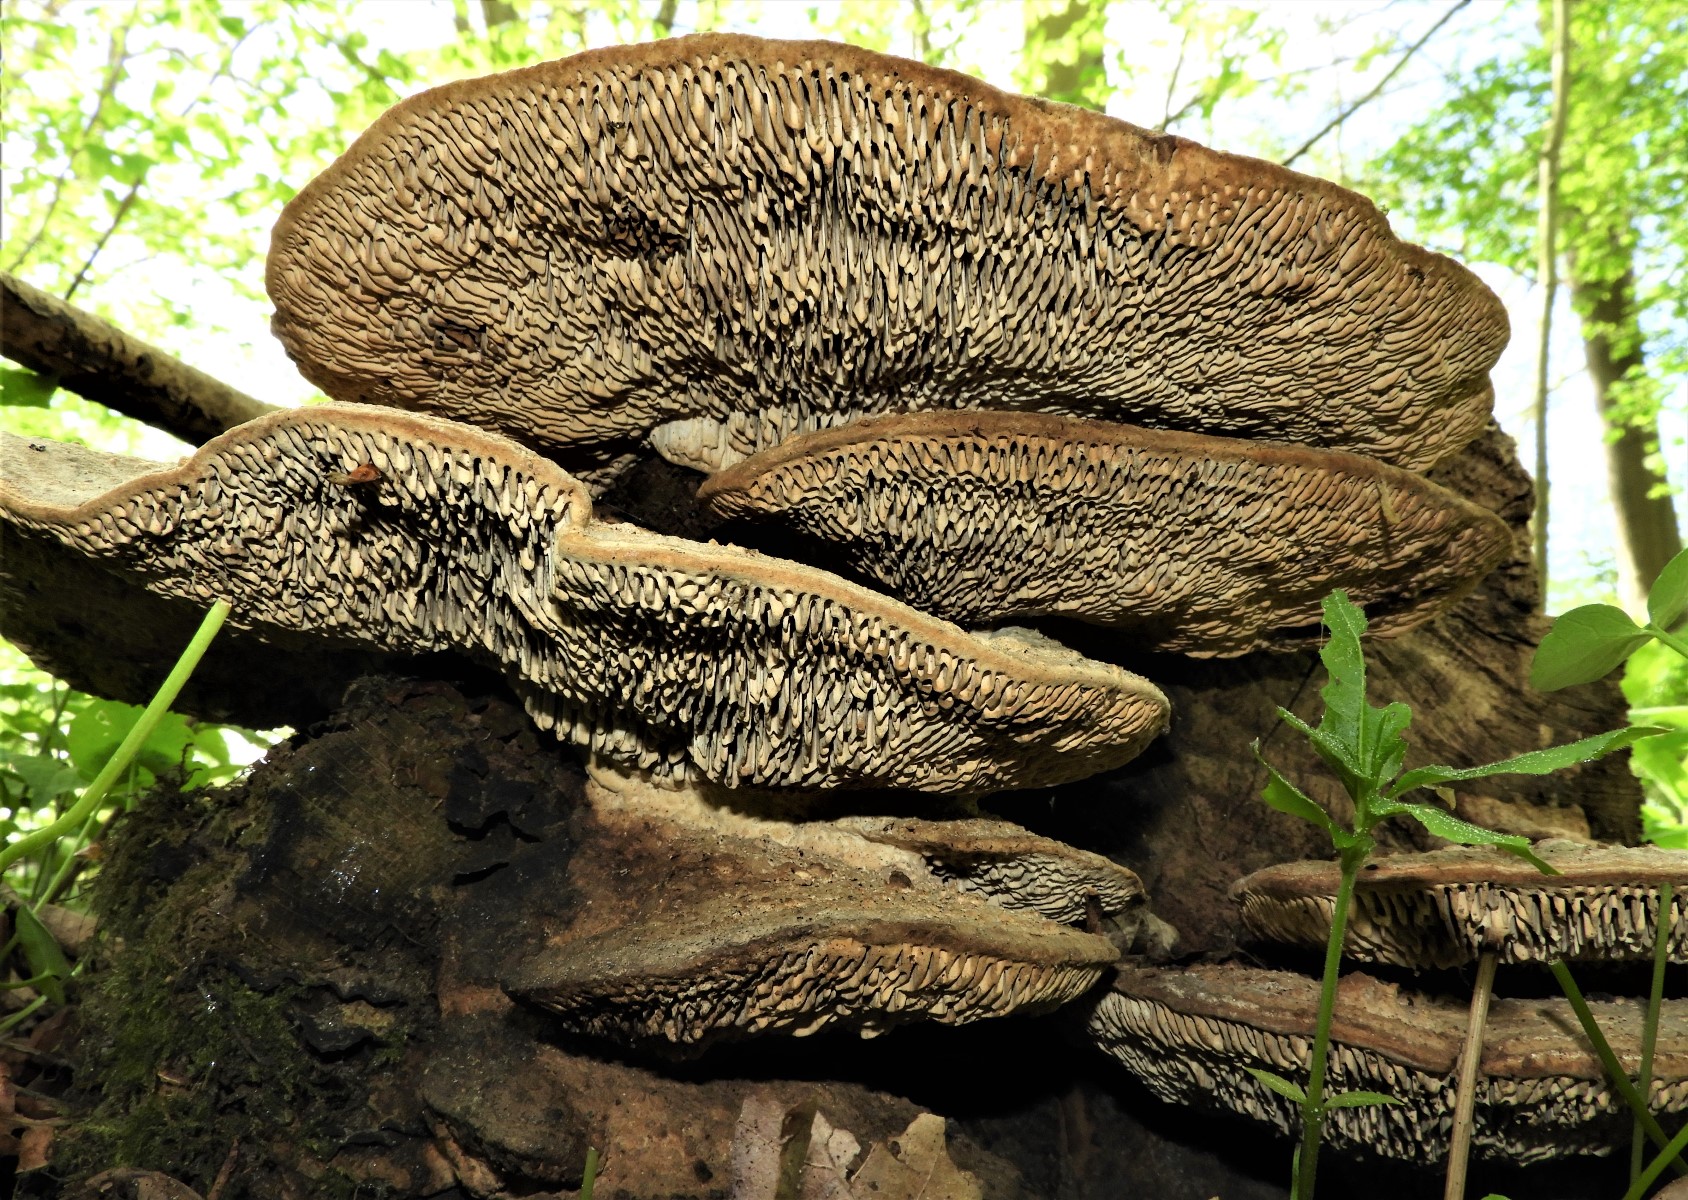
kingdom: Fungi
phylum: Basidiomycota
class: Agaricomycetes
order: Polyporales
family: Fomitopsidaceae
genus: Daedalea
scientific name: Daedalea quercina
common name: ege-labyrintsvamp
